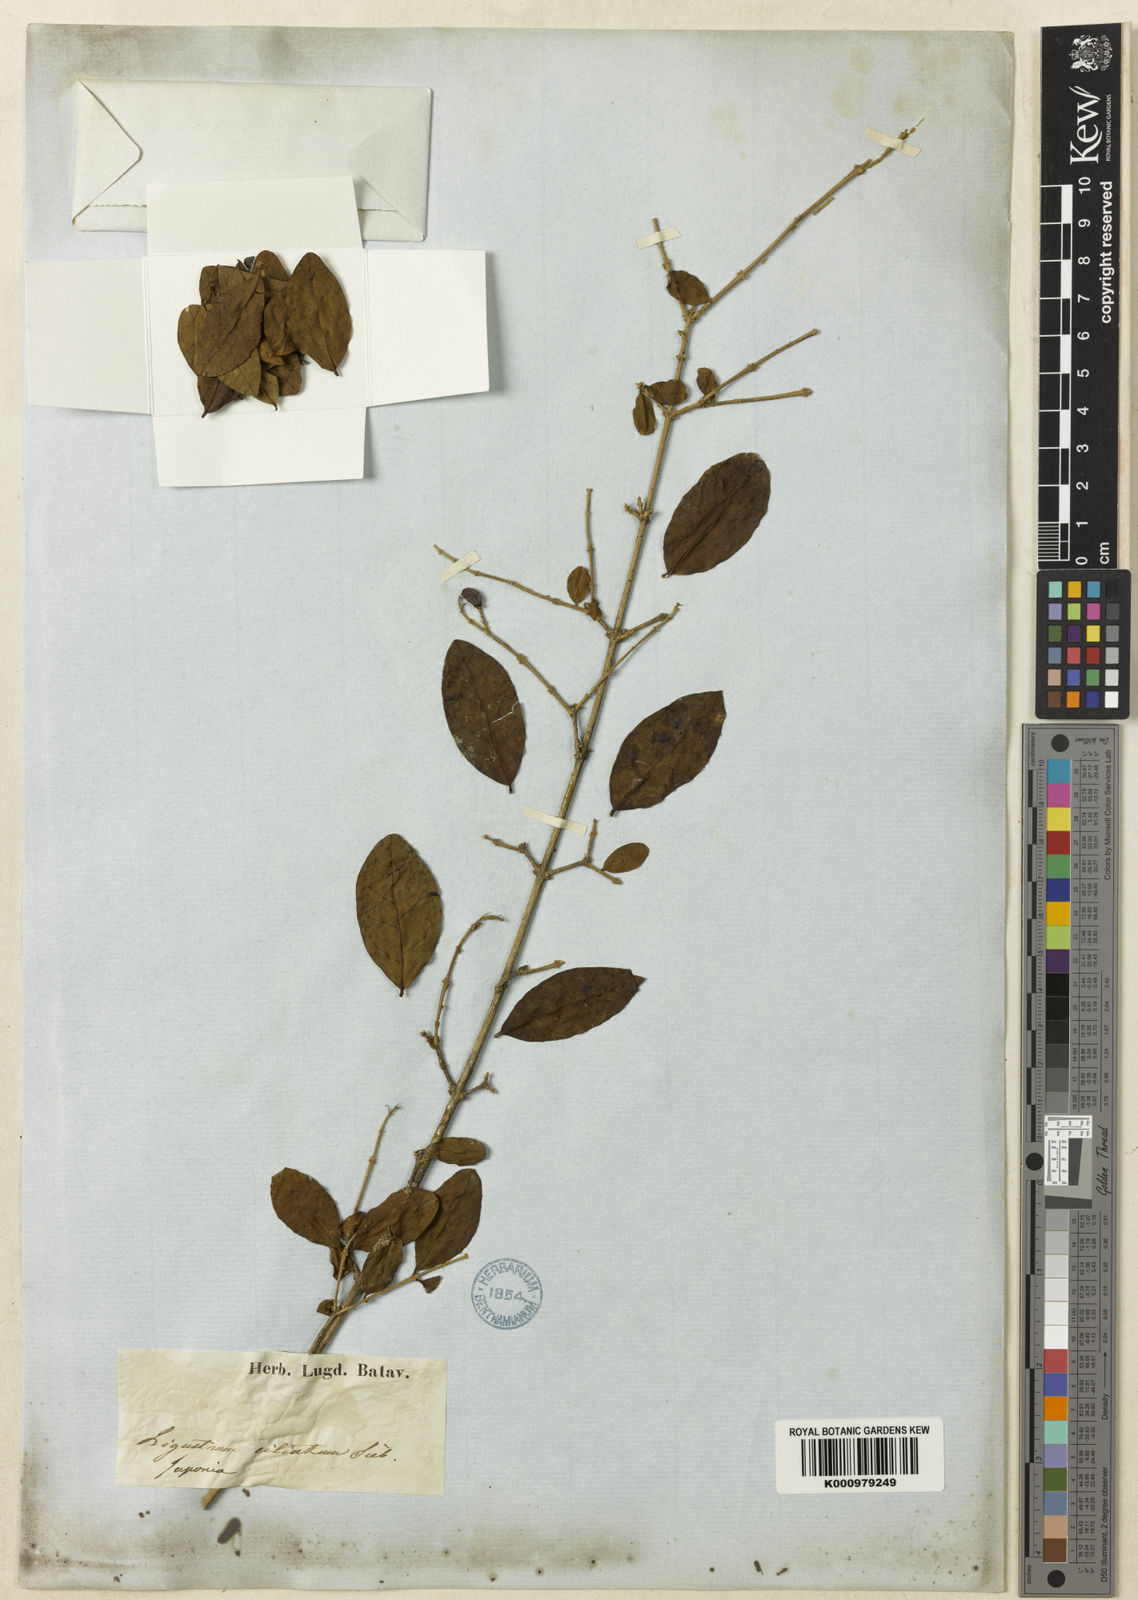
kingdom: Plantae
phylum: Tracheophyta
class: Magnoliopsida
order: Lamiales
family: Oleaceae
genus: Ligustrum
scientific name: Ligustrum ibota
